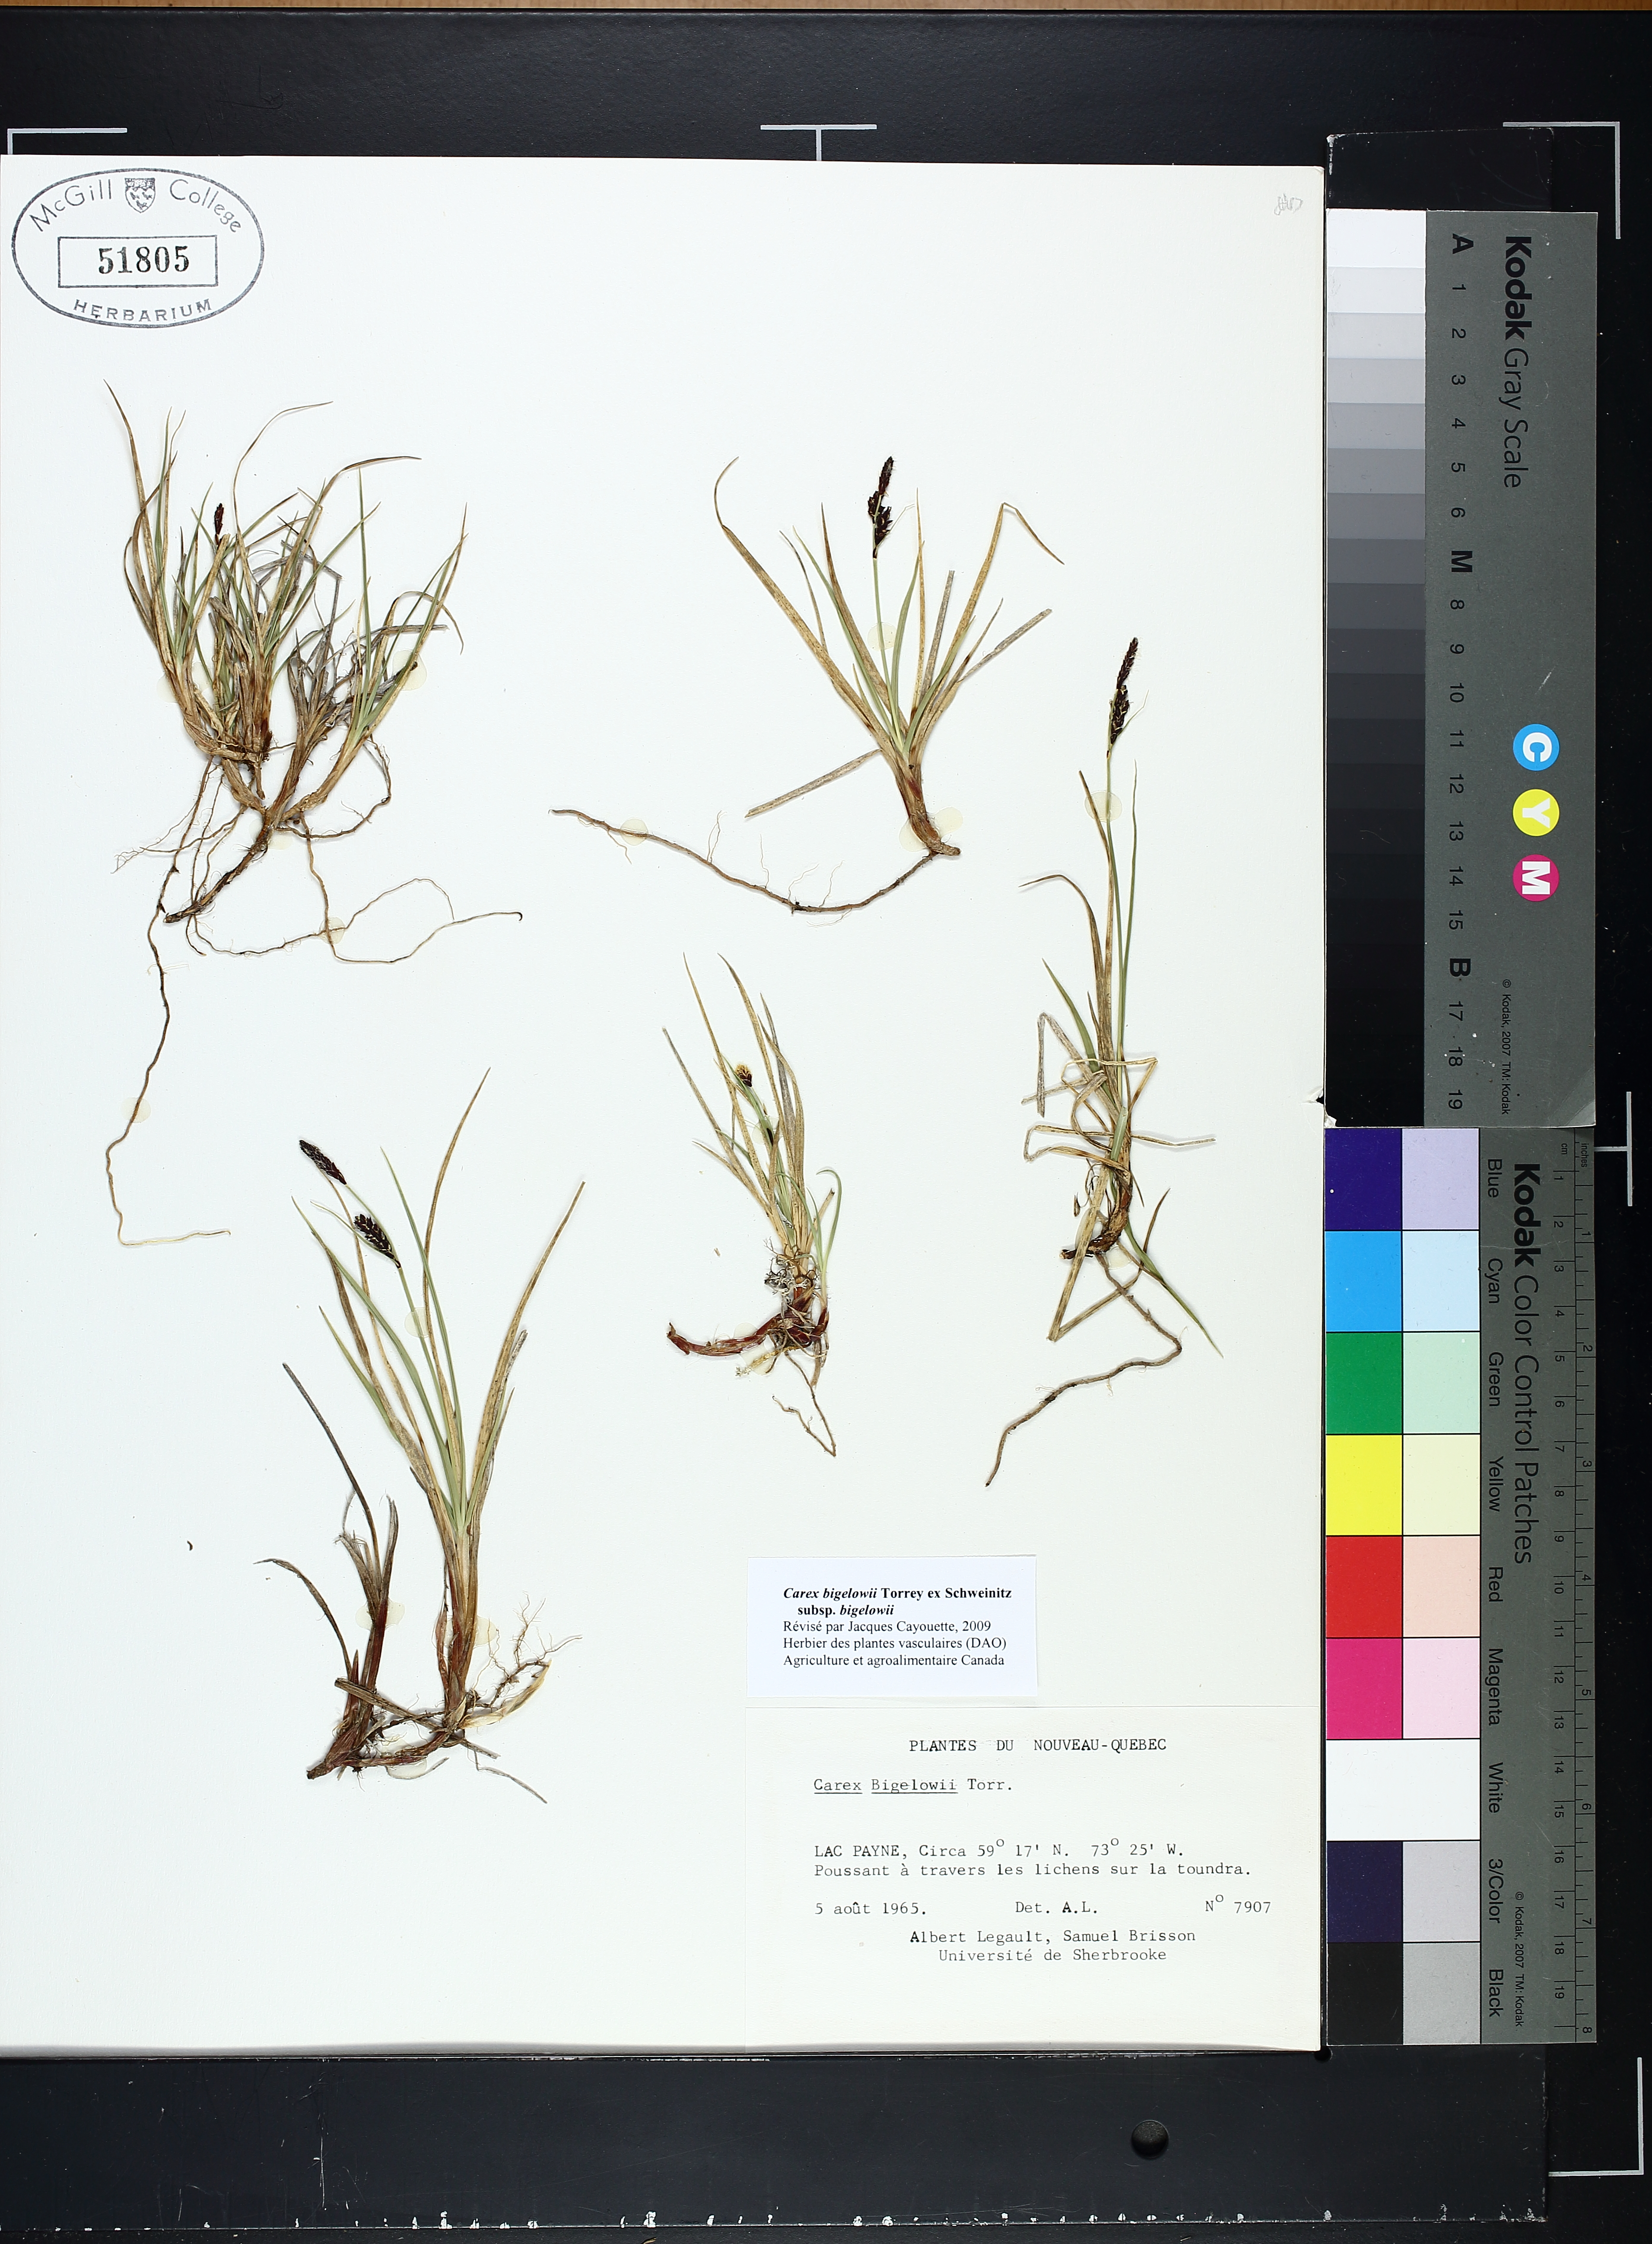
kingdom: Plantae
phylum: Tracheophyta
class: Liliopsida
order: Poales
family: Cyperaceae
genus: Carex
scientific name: Carex bigelowii
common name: Stiff sedge
